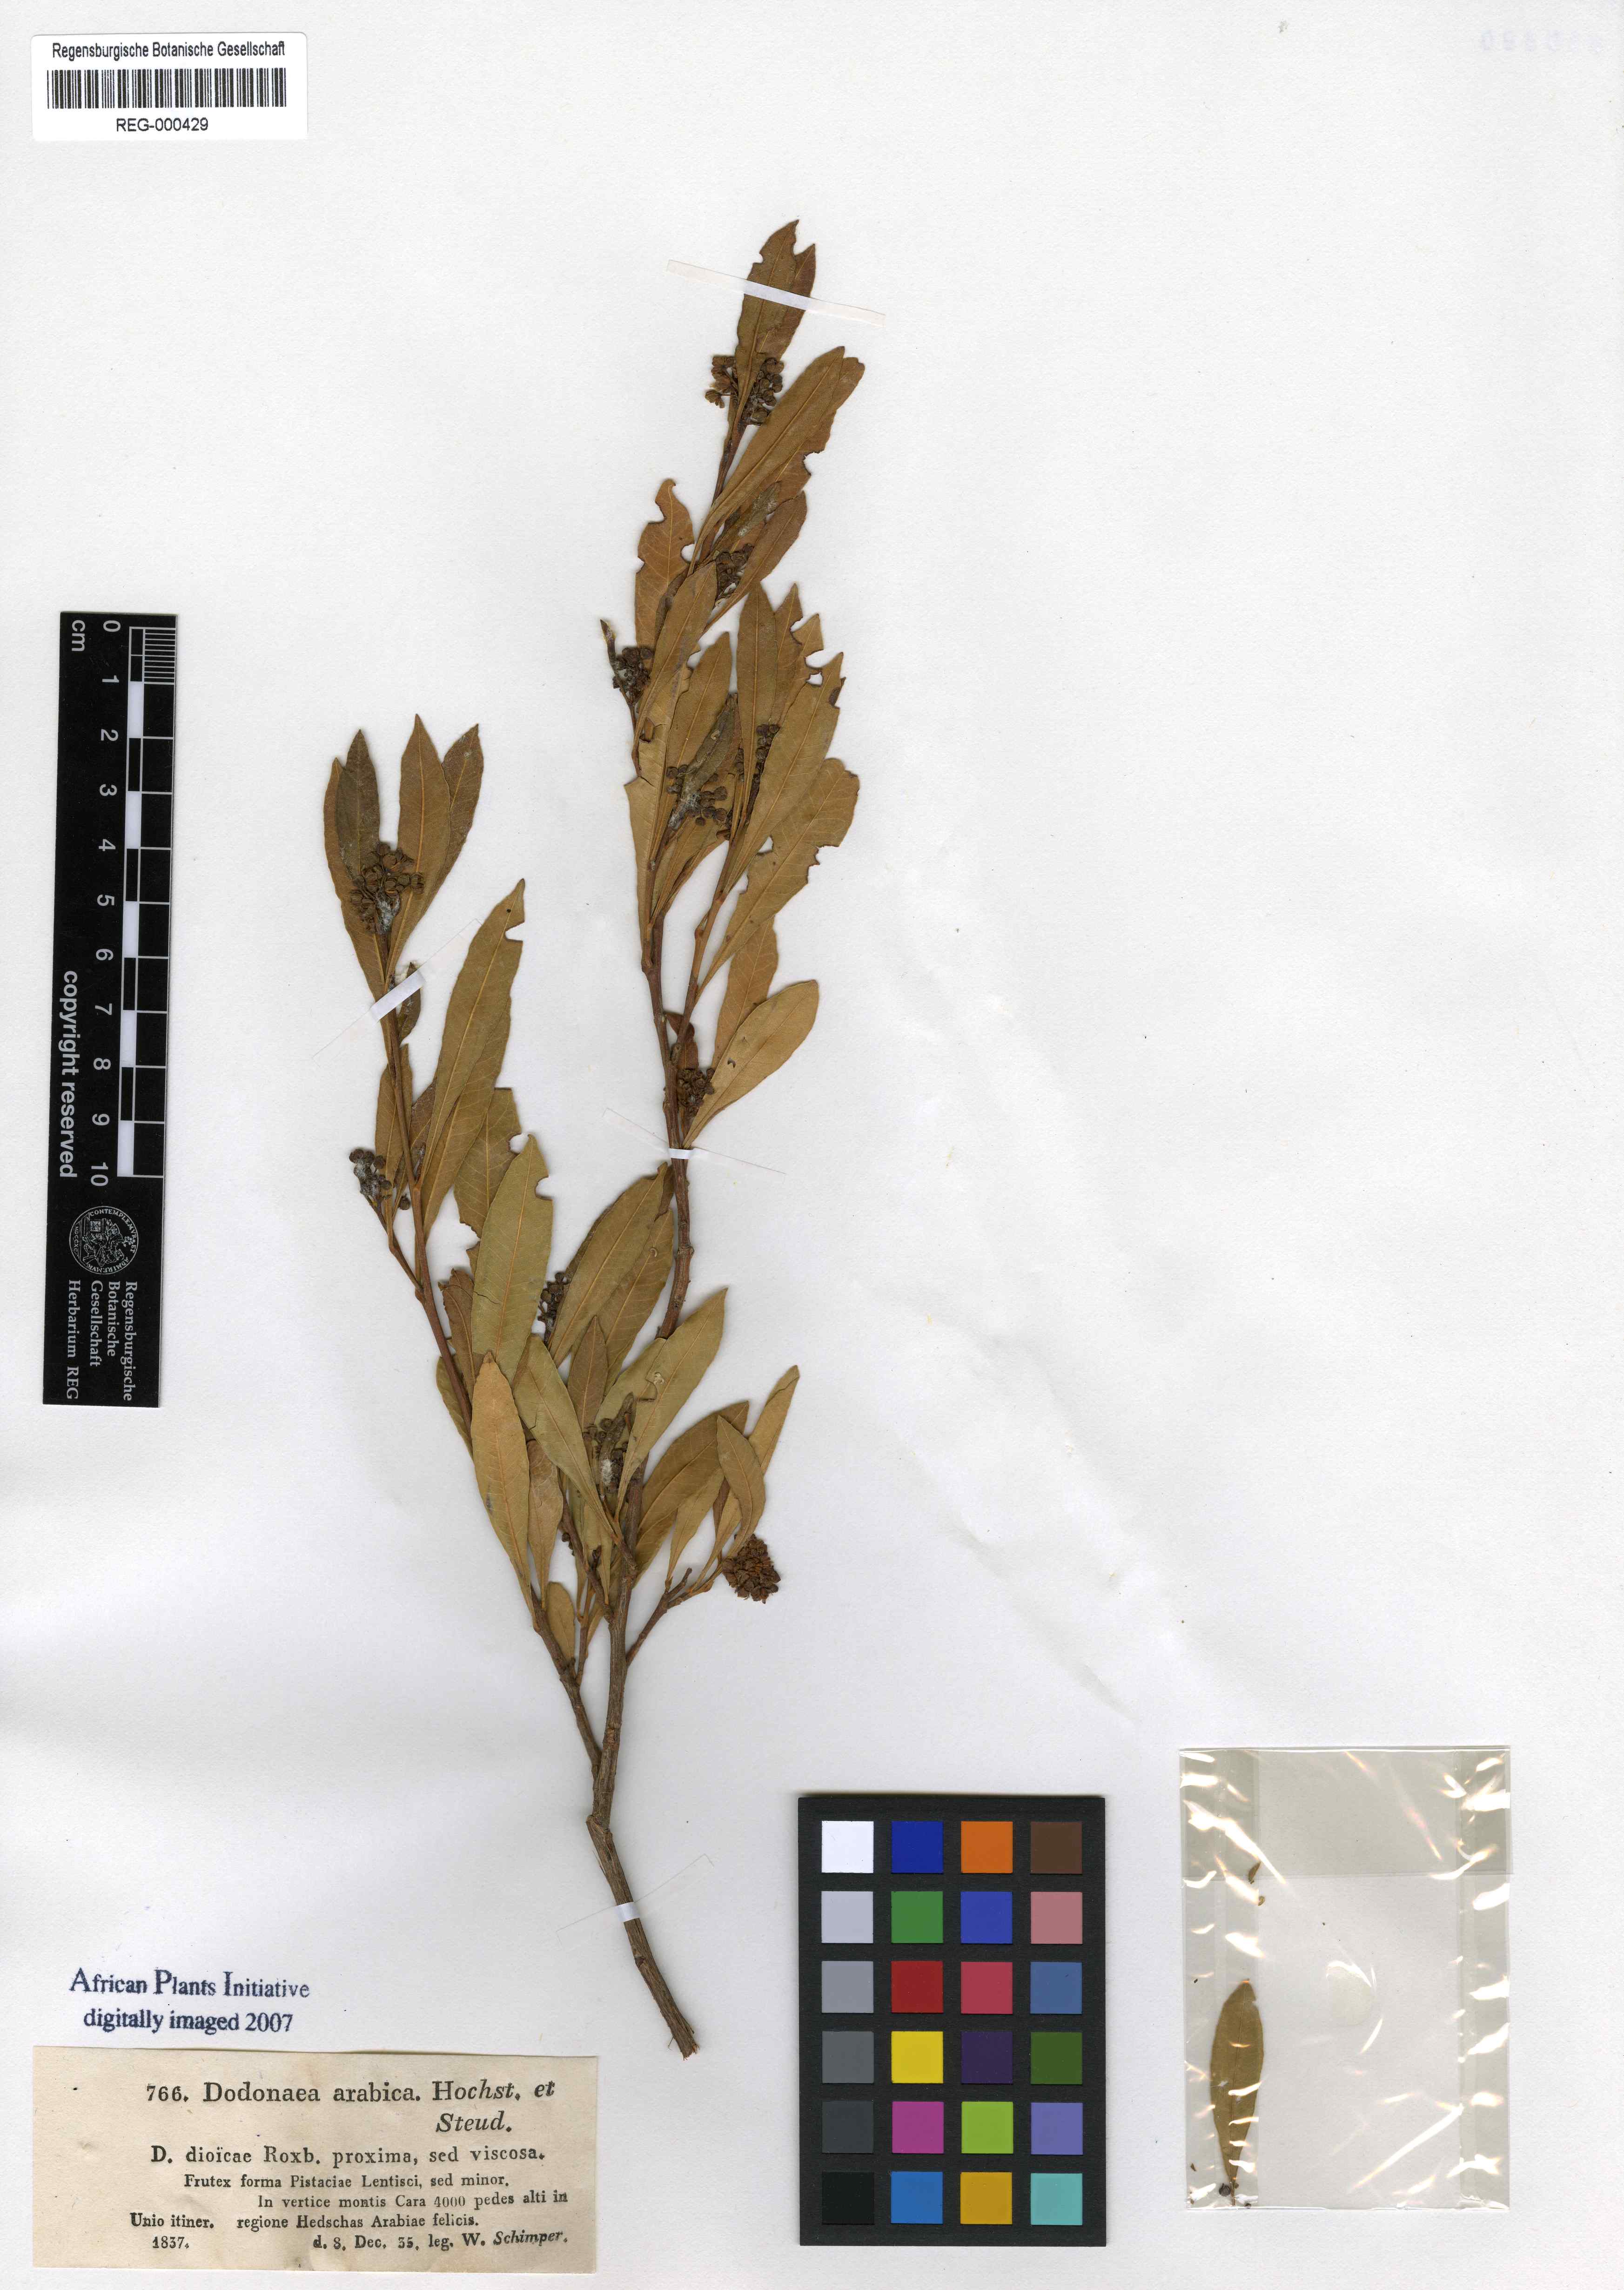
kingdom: Plantae
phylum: Tracheophyta
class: Magnoliopsida
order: Sapindales
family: Sapindaceae
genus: Dodonaea
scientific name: Dodonaea viscosa
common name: Hopbush
